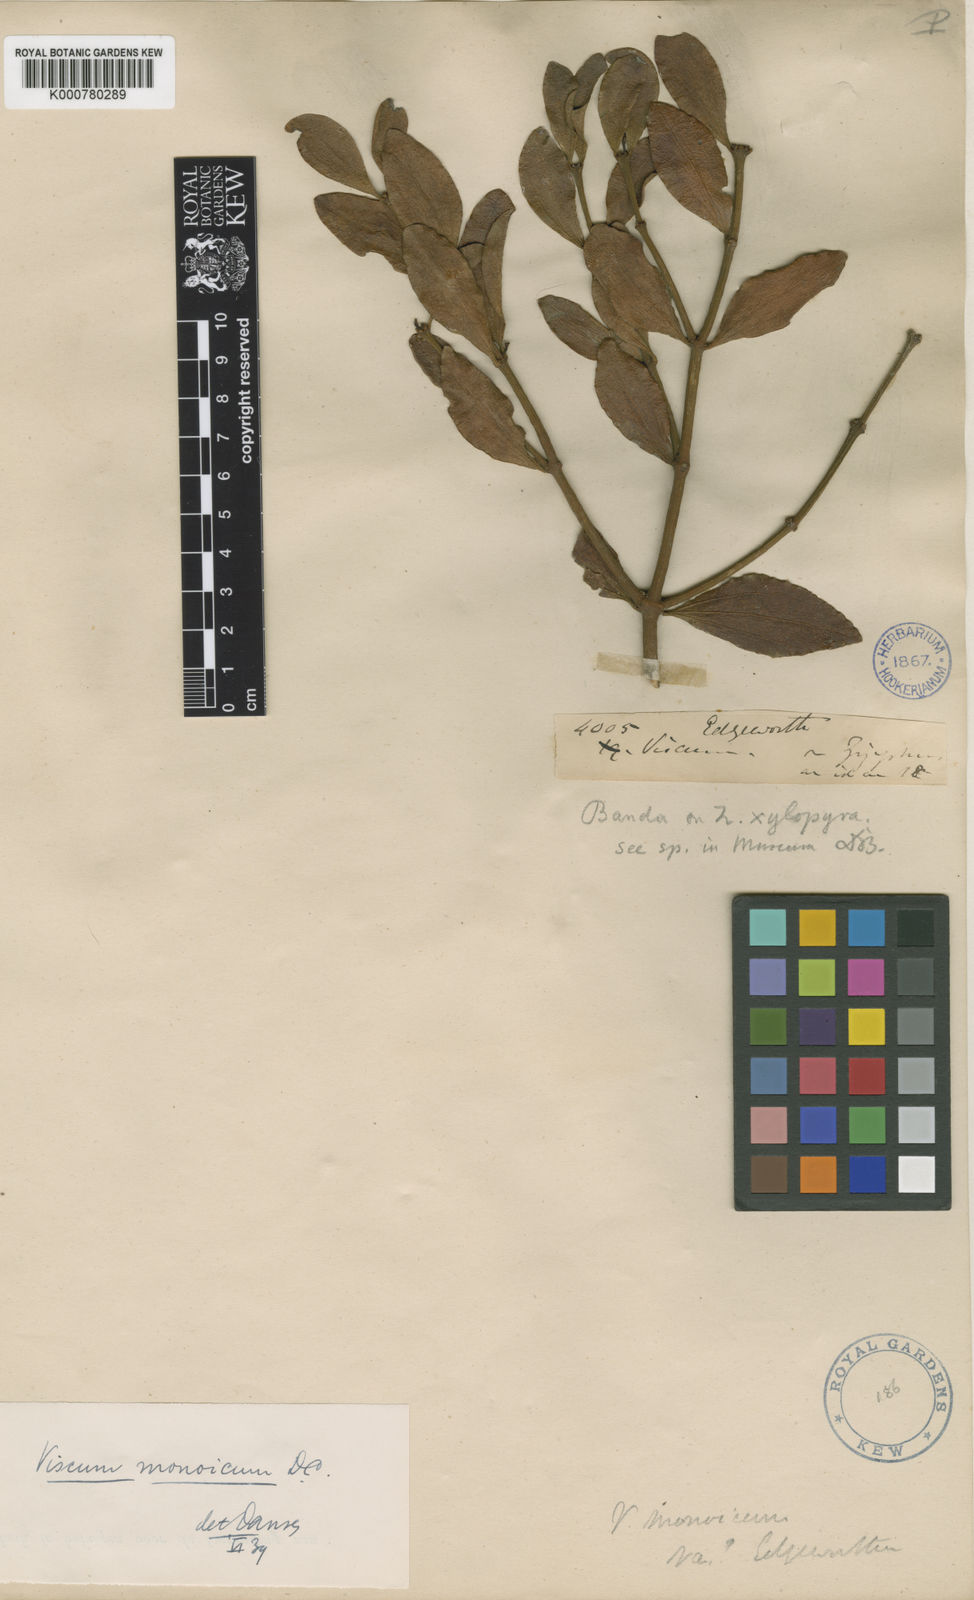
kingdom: Plantae
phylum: Tracheophyta
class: Magnoliopsida
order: Santalales
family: Viscaceae
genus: Viscum
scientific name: Viscum monoicum
